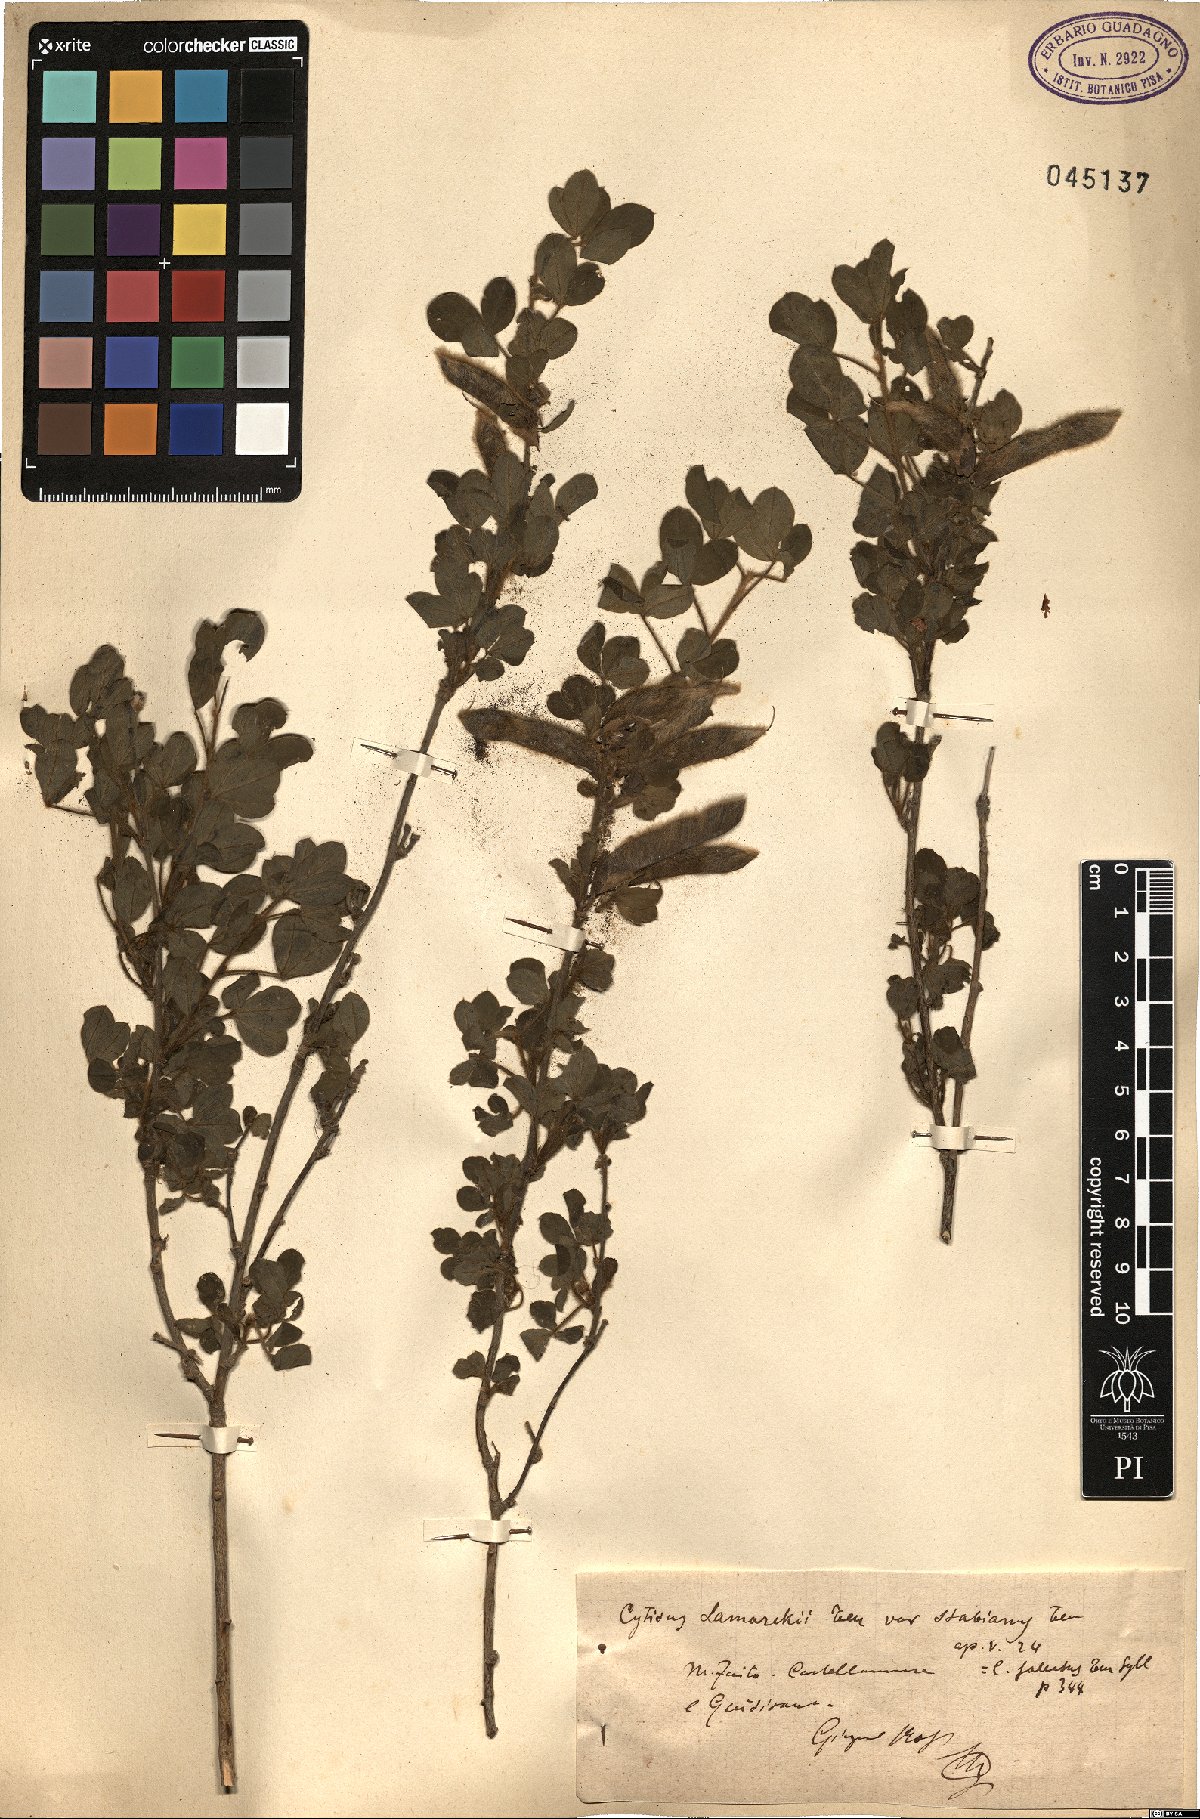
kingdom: Plantae
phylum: Tracheophyta
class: Magnoliopsida
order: Fabales
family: Fabaceae
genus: Chamaecytisus
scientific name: Chamaecytisus triflorus
